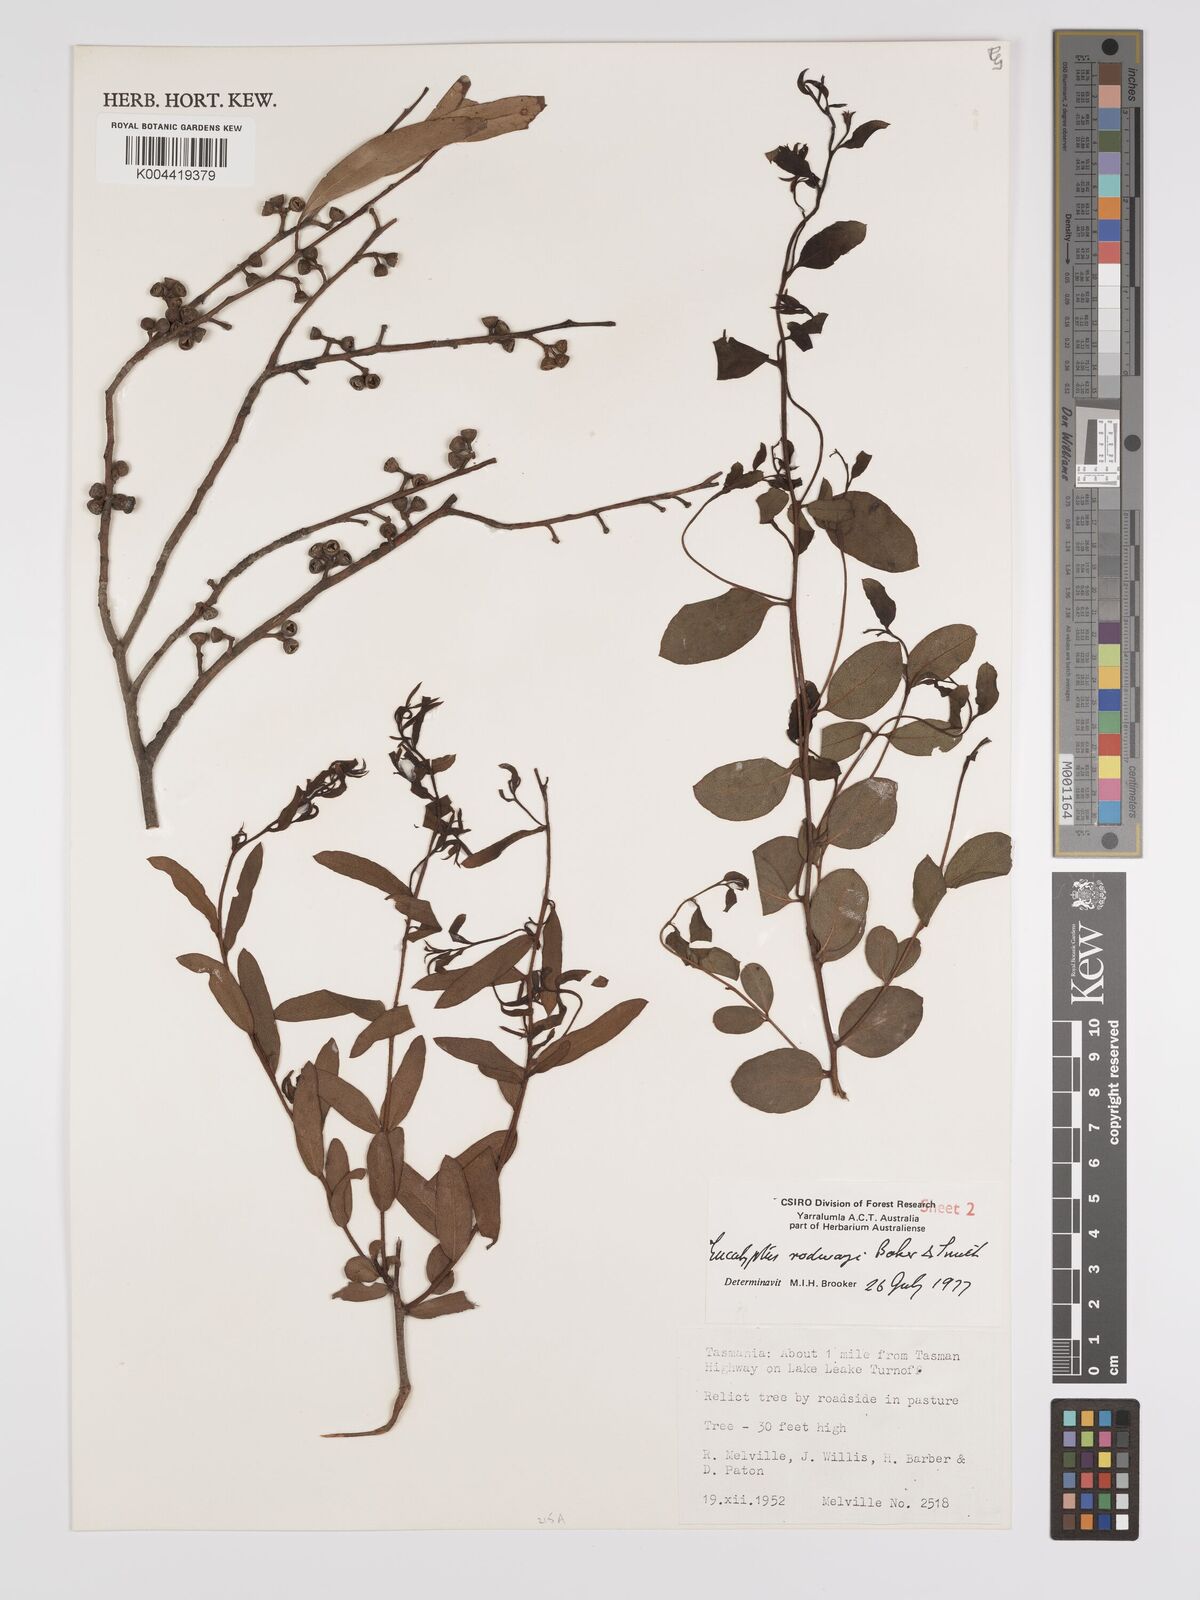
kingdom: Plantae
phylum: Tracheophyta
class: Magnoliopsida
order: Myrtales
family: Myrtaceae
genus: Eucalyptus
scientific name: Eucalyptus rodwayi
